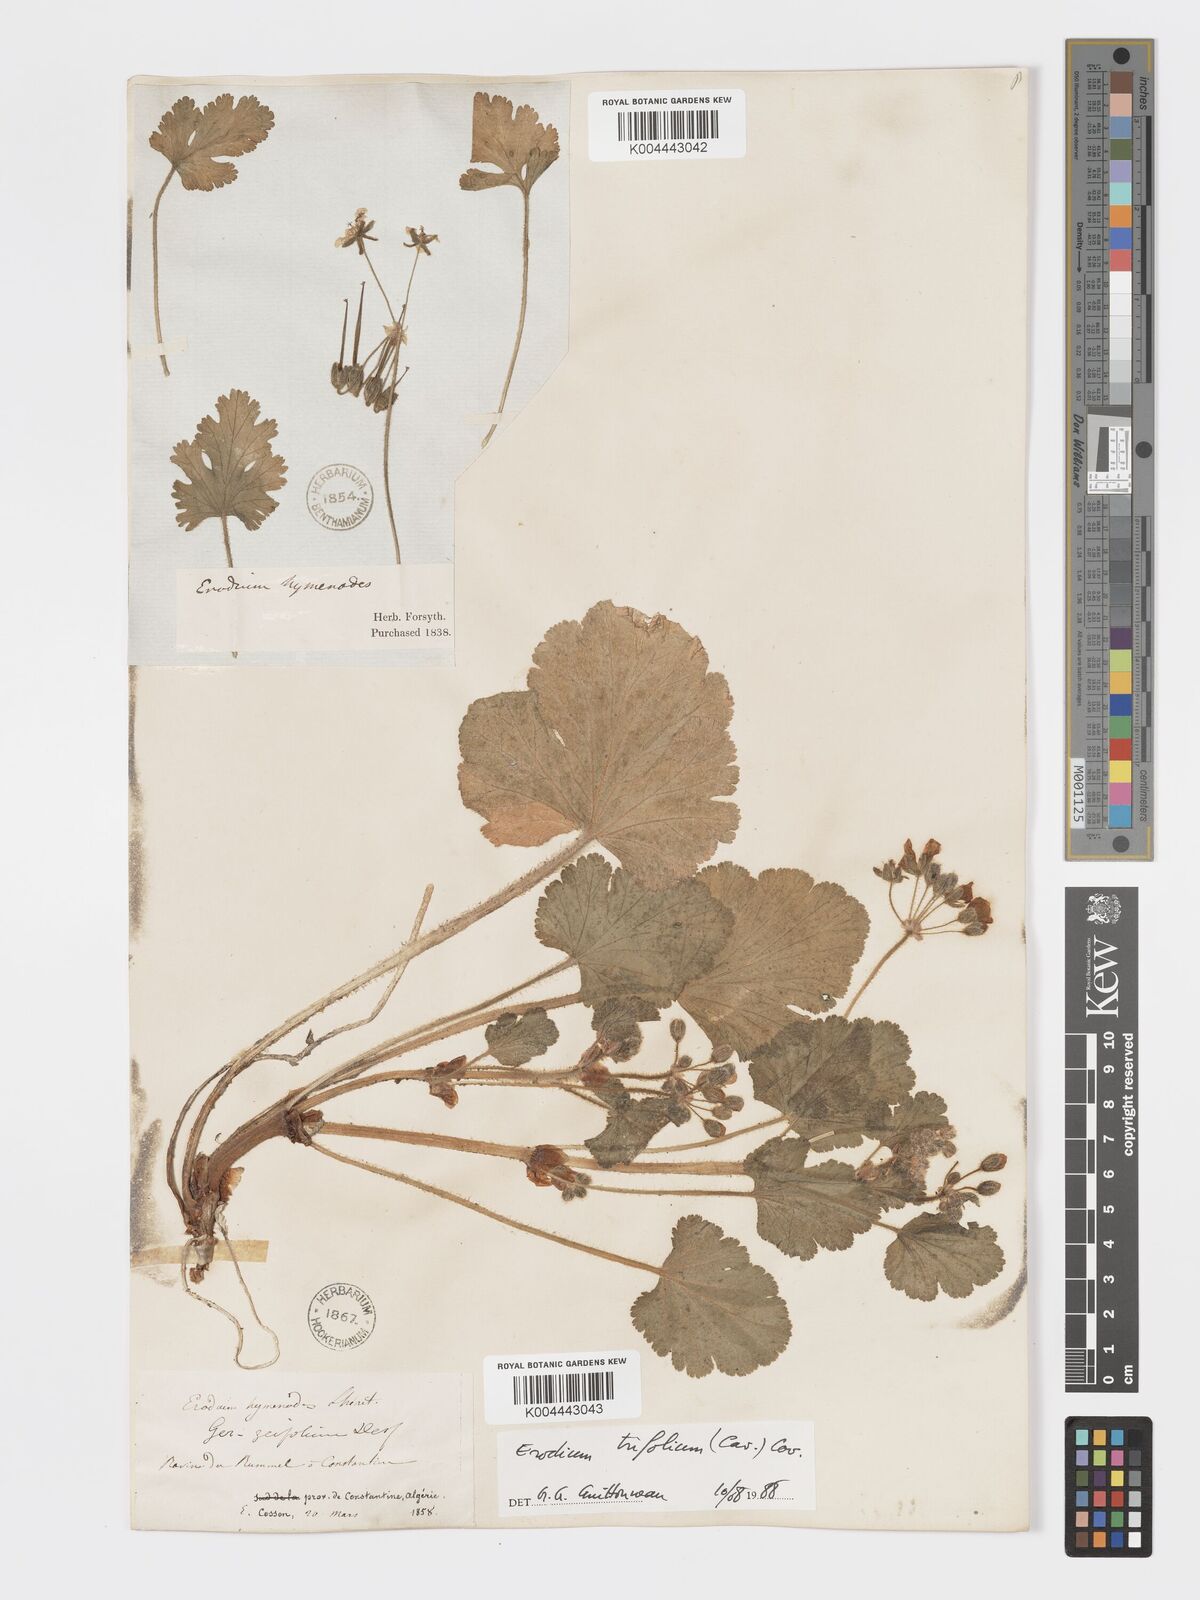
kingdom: Plantae
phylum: Tracheophyta
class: Magnoliopsida
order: Geraniales
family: Geraniaceae
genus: Erodium
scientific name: Erodium trifolium
